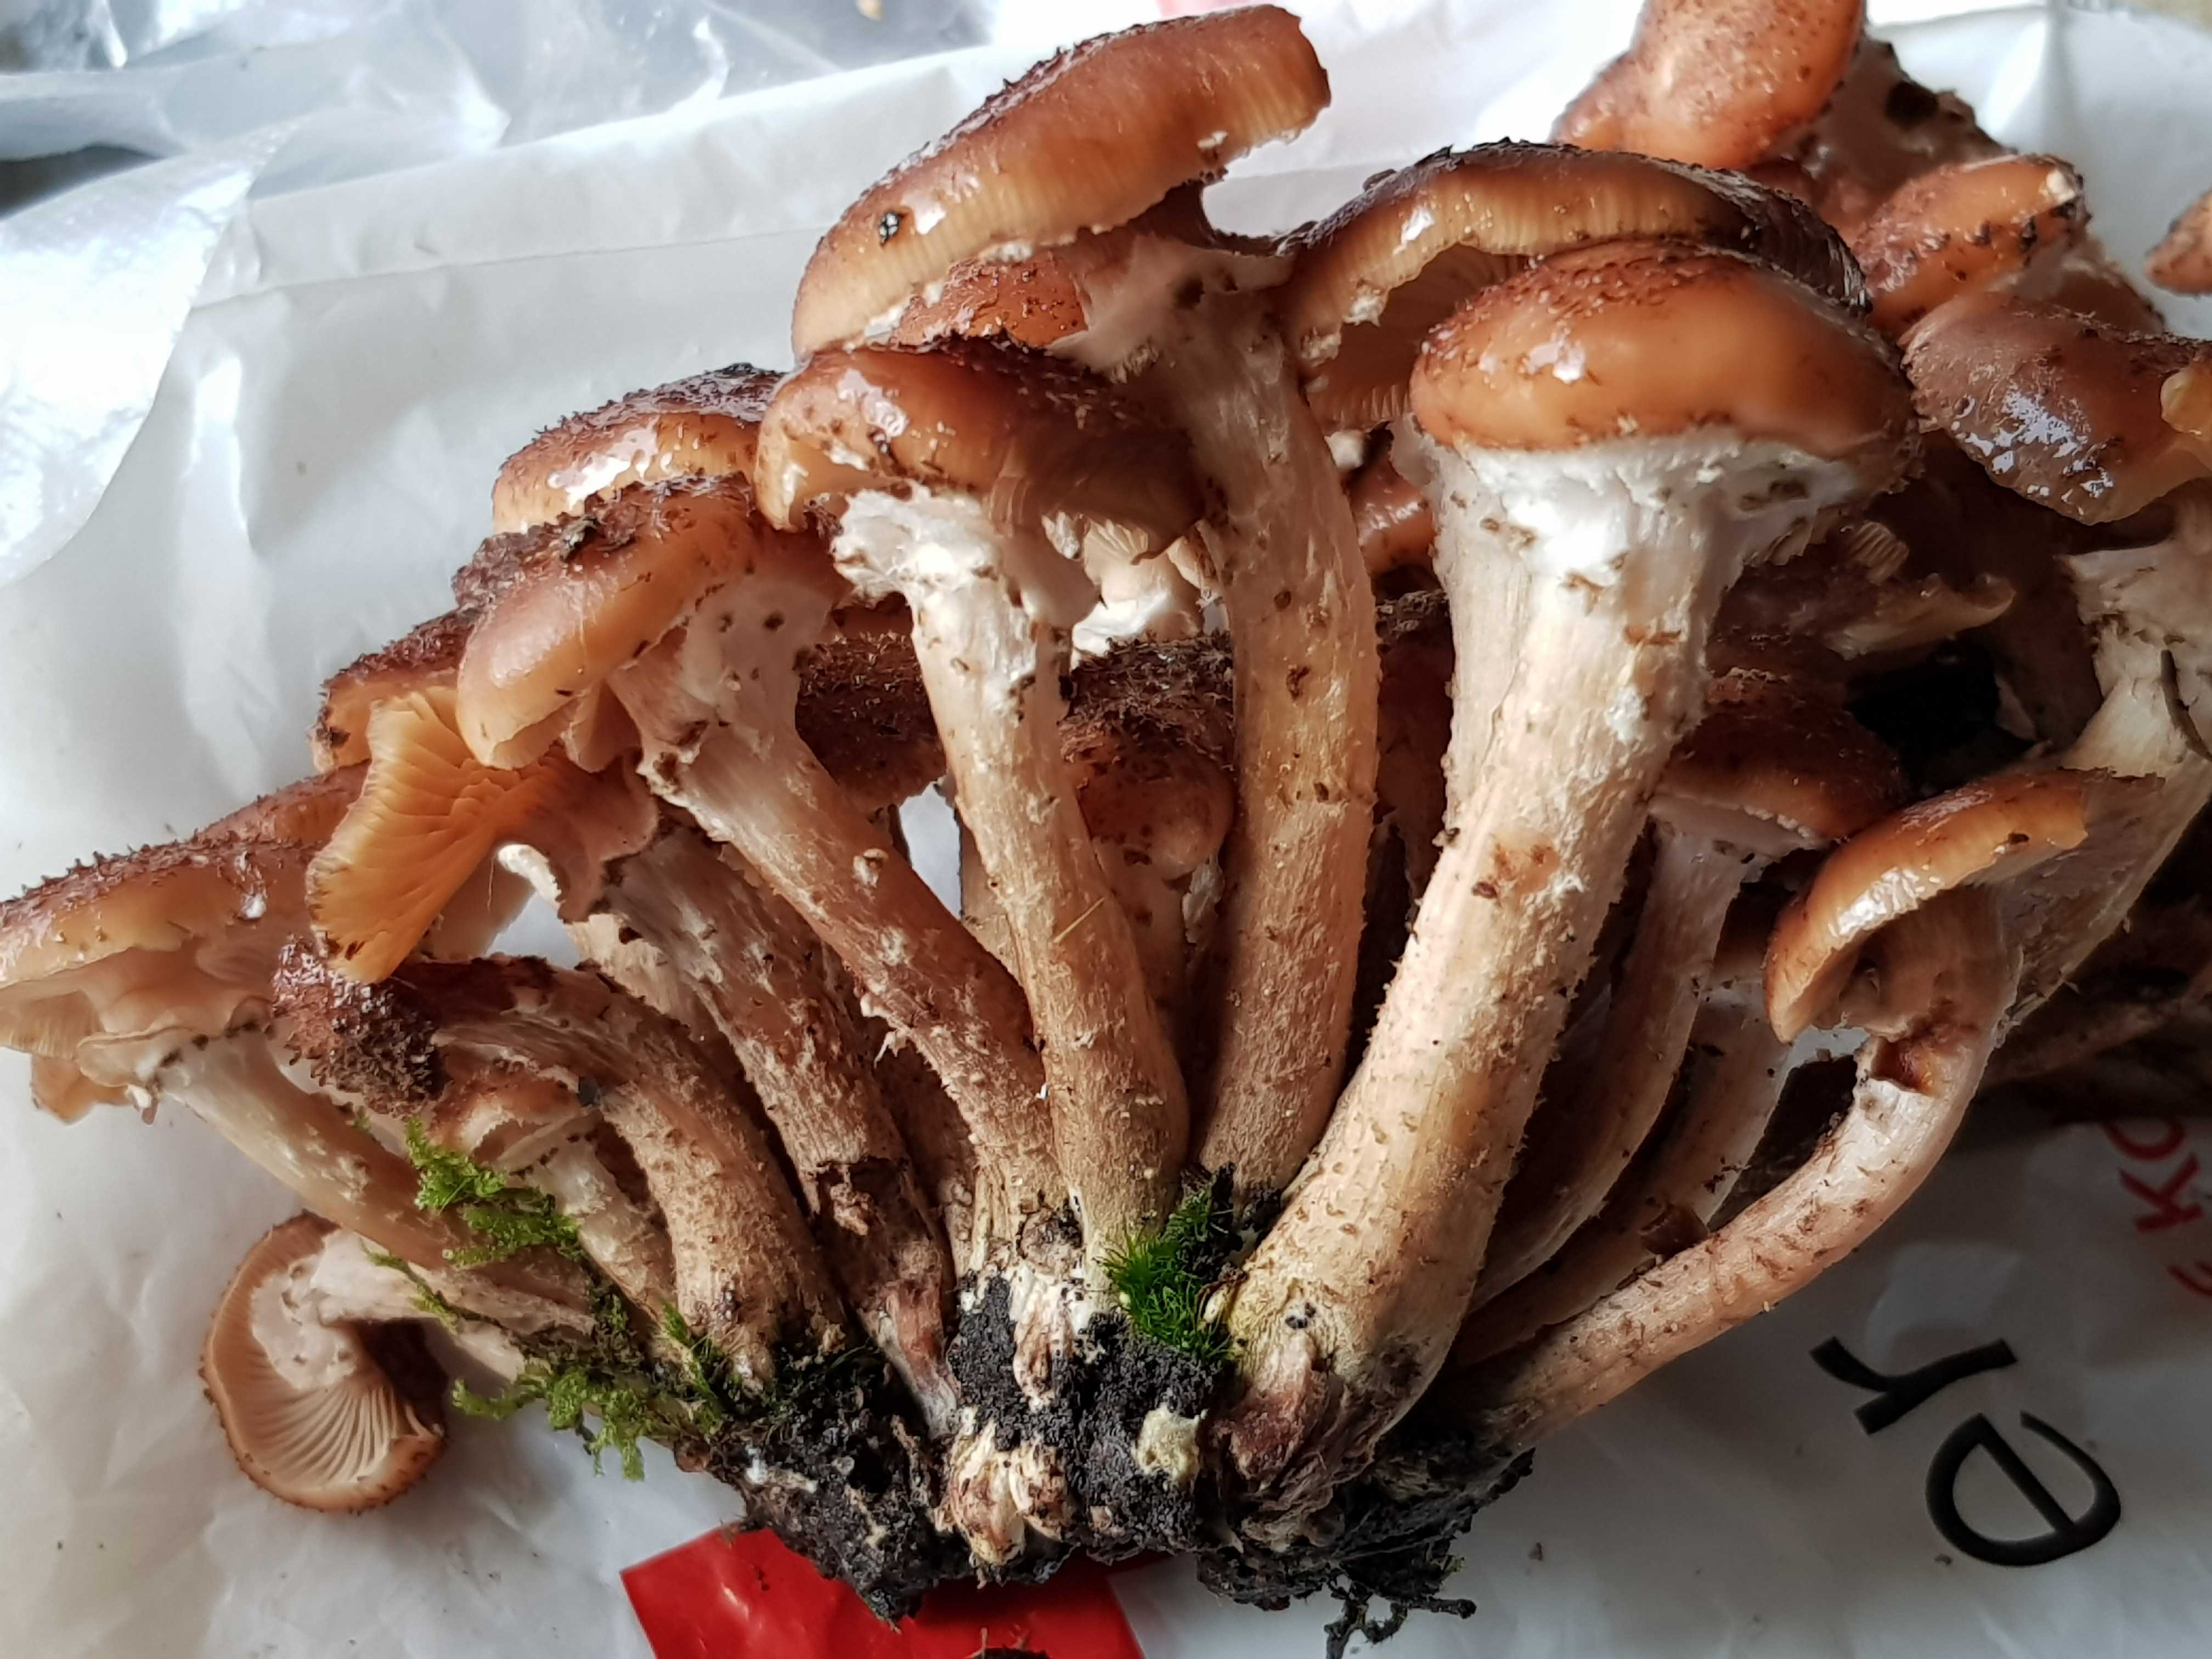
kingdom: Fungi
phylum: Basidiomycota
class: Agaricomycetes
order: Agaricales
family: Physalacriaceae
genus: Armillaria
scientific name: Armillaria ostoyae
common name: mørk honningsvamp
